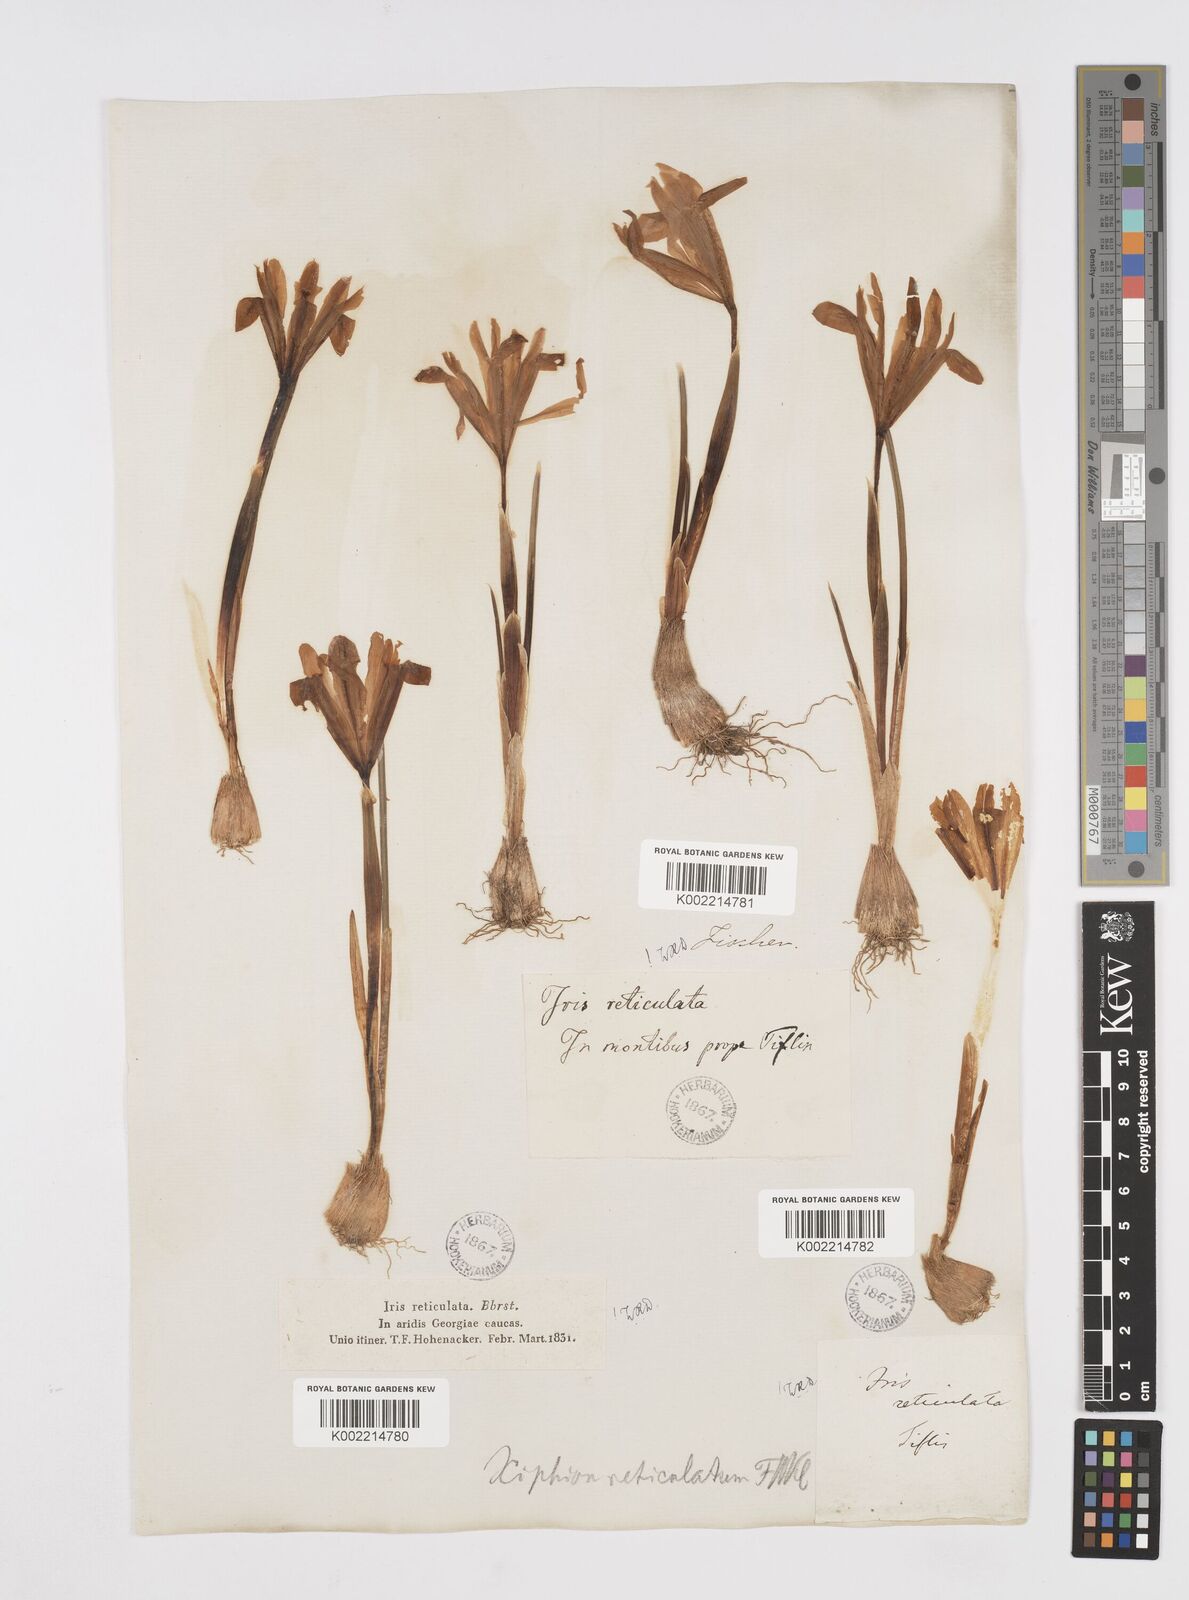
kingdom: Plantae
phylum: Tracheophyta
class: Liliopsida
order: Asparagales
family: Iridaceae
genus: Iris
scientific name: Iris reticulata
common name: Netted iris
